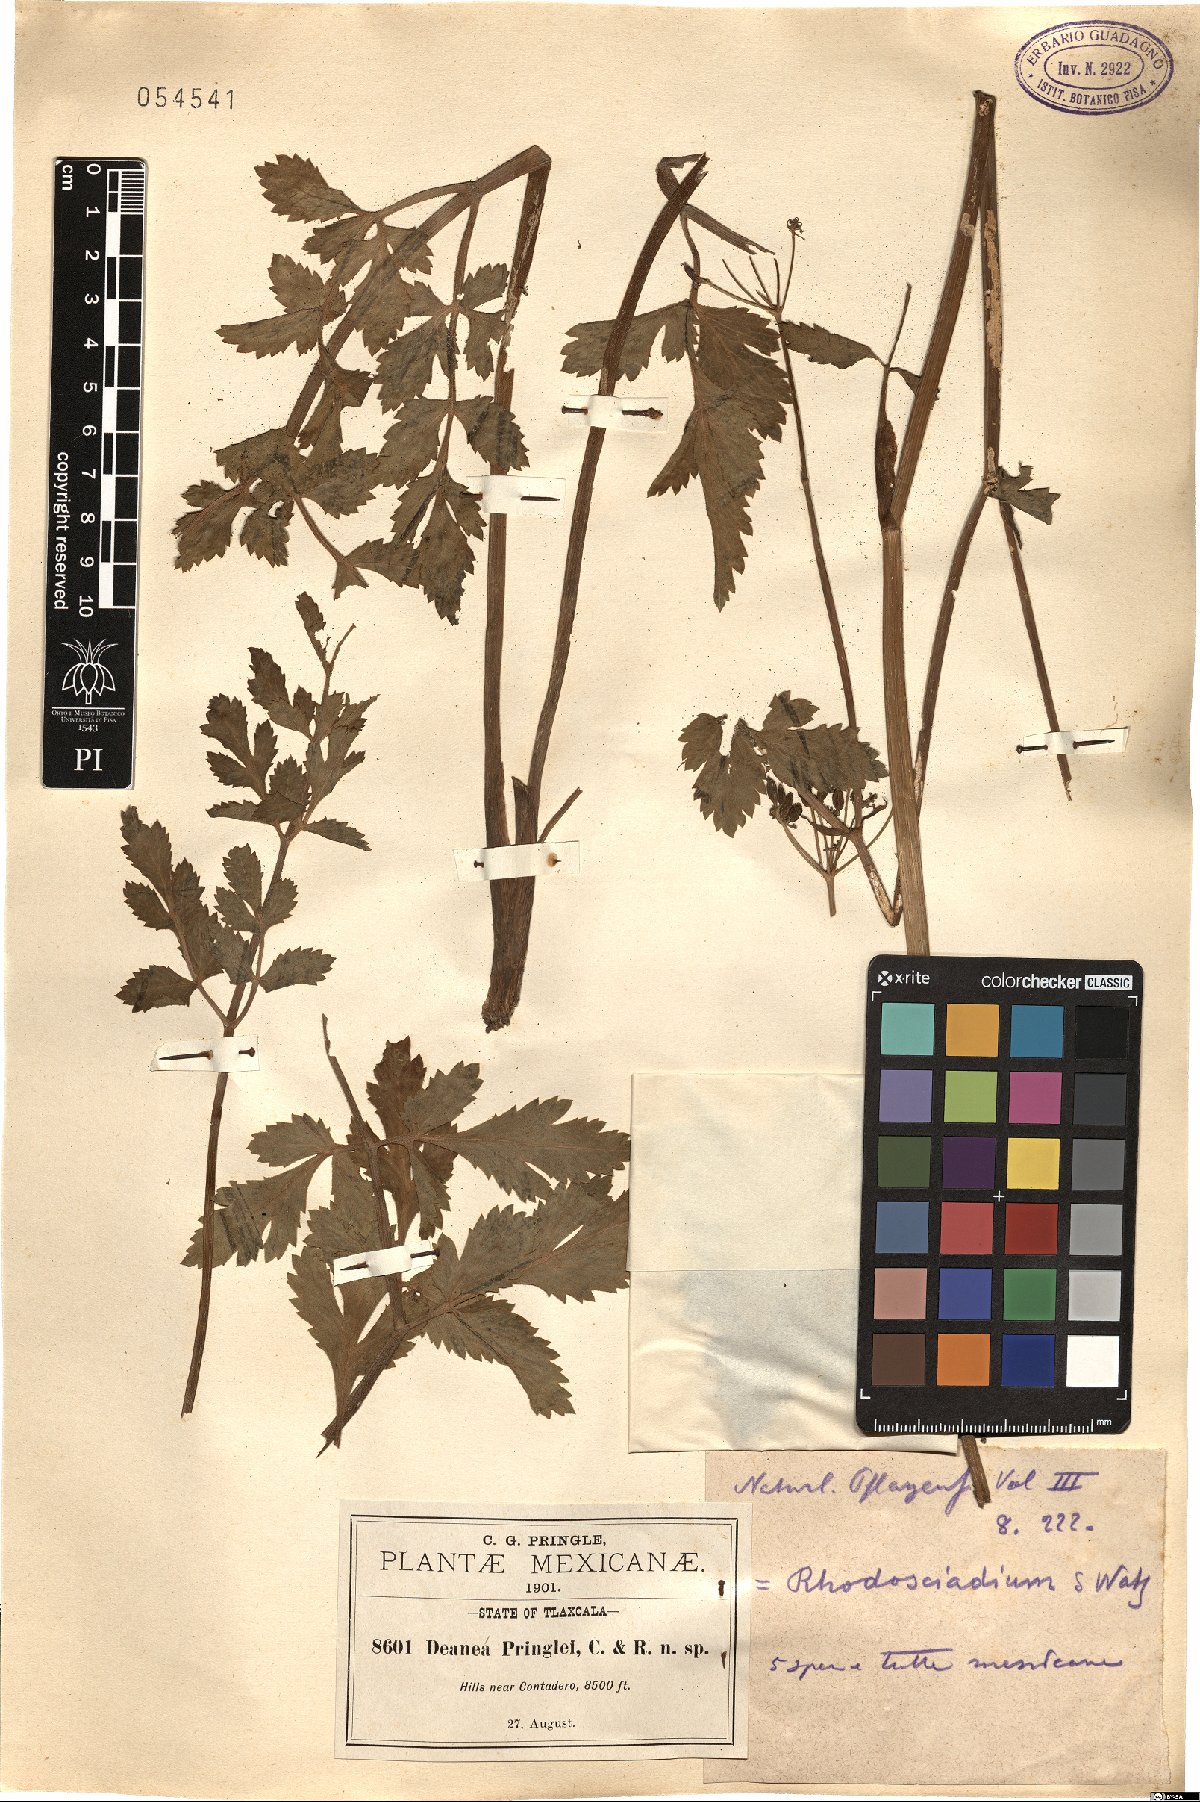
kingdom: Plantae
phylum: Tracheophyta
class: Magnoliopsida
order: Apiales
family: Apiaceae
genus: Rhodosciadium
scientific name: Rhodosciadium pringlei
